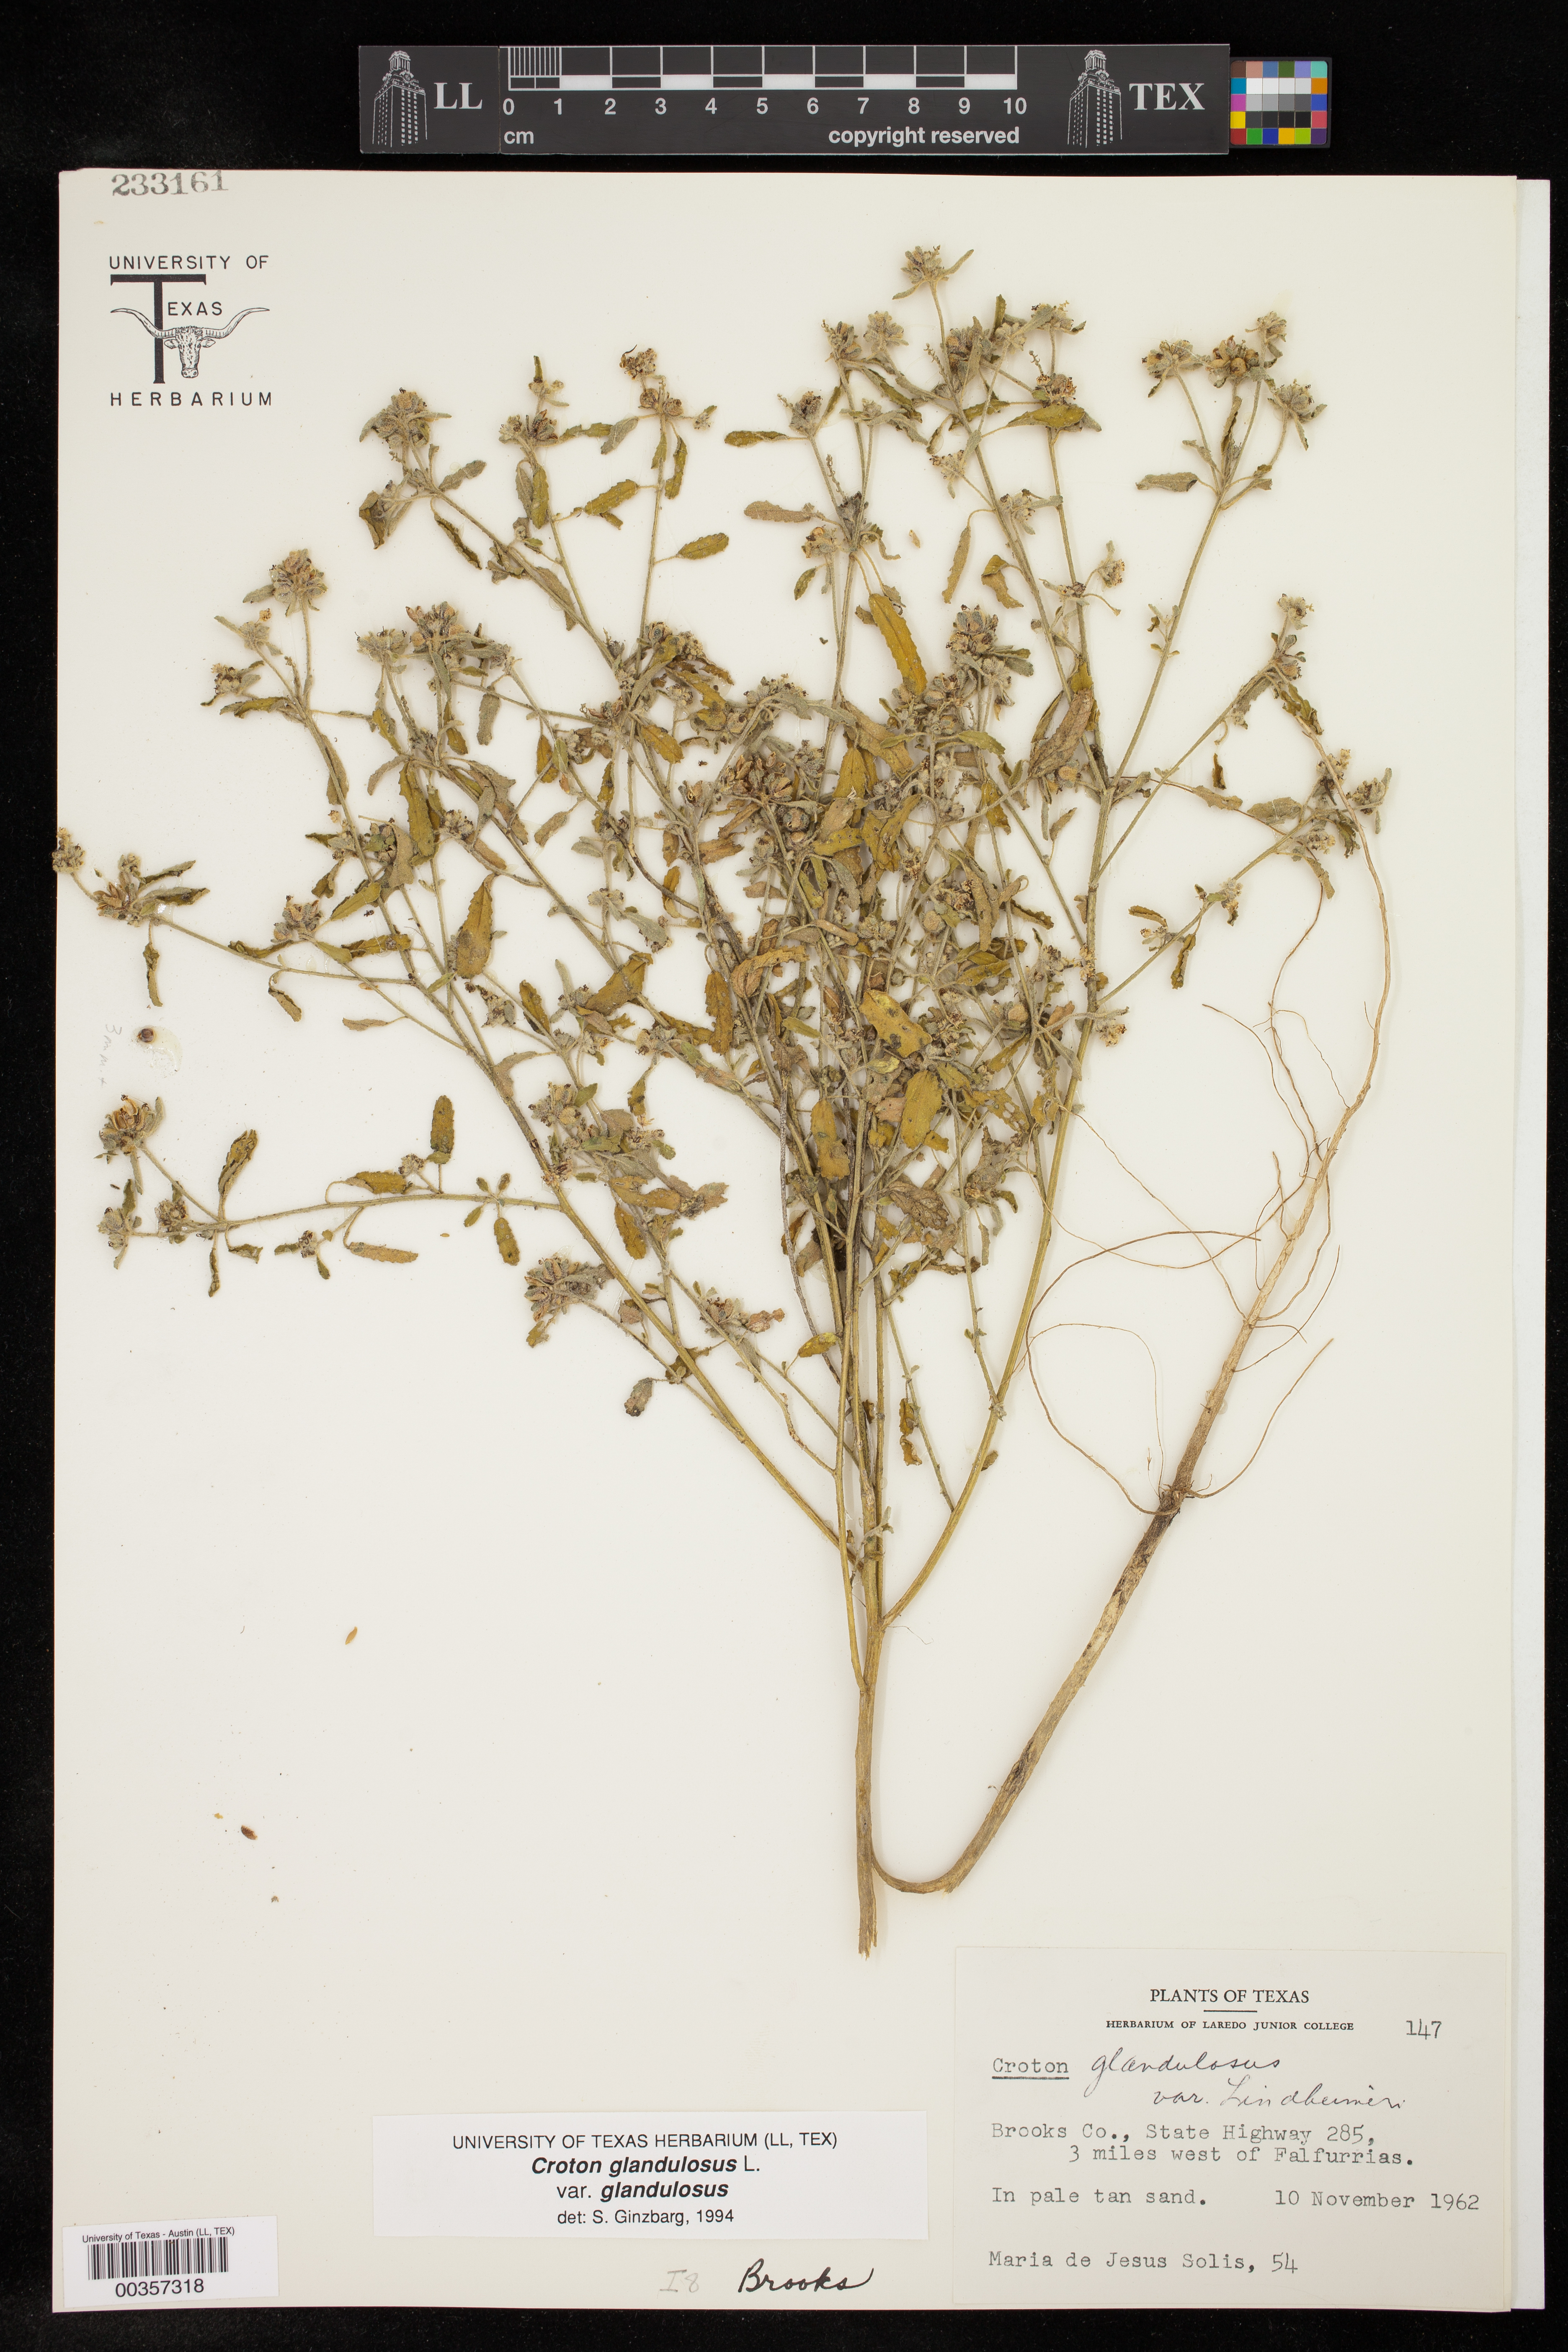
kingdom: Plantae
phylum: Tracheophyta
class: Magnoliopsida
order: Malpighiales
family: Euphorbiaceae
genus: Croton
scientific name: Croton glandulosus
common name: Tropic croton
